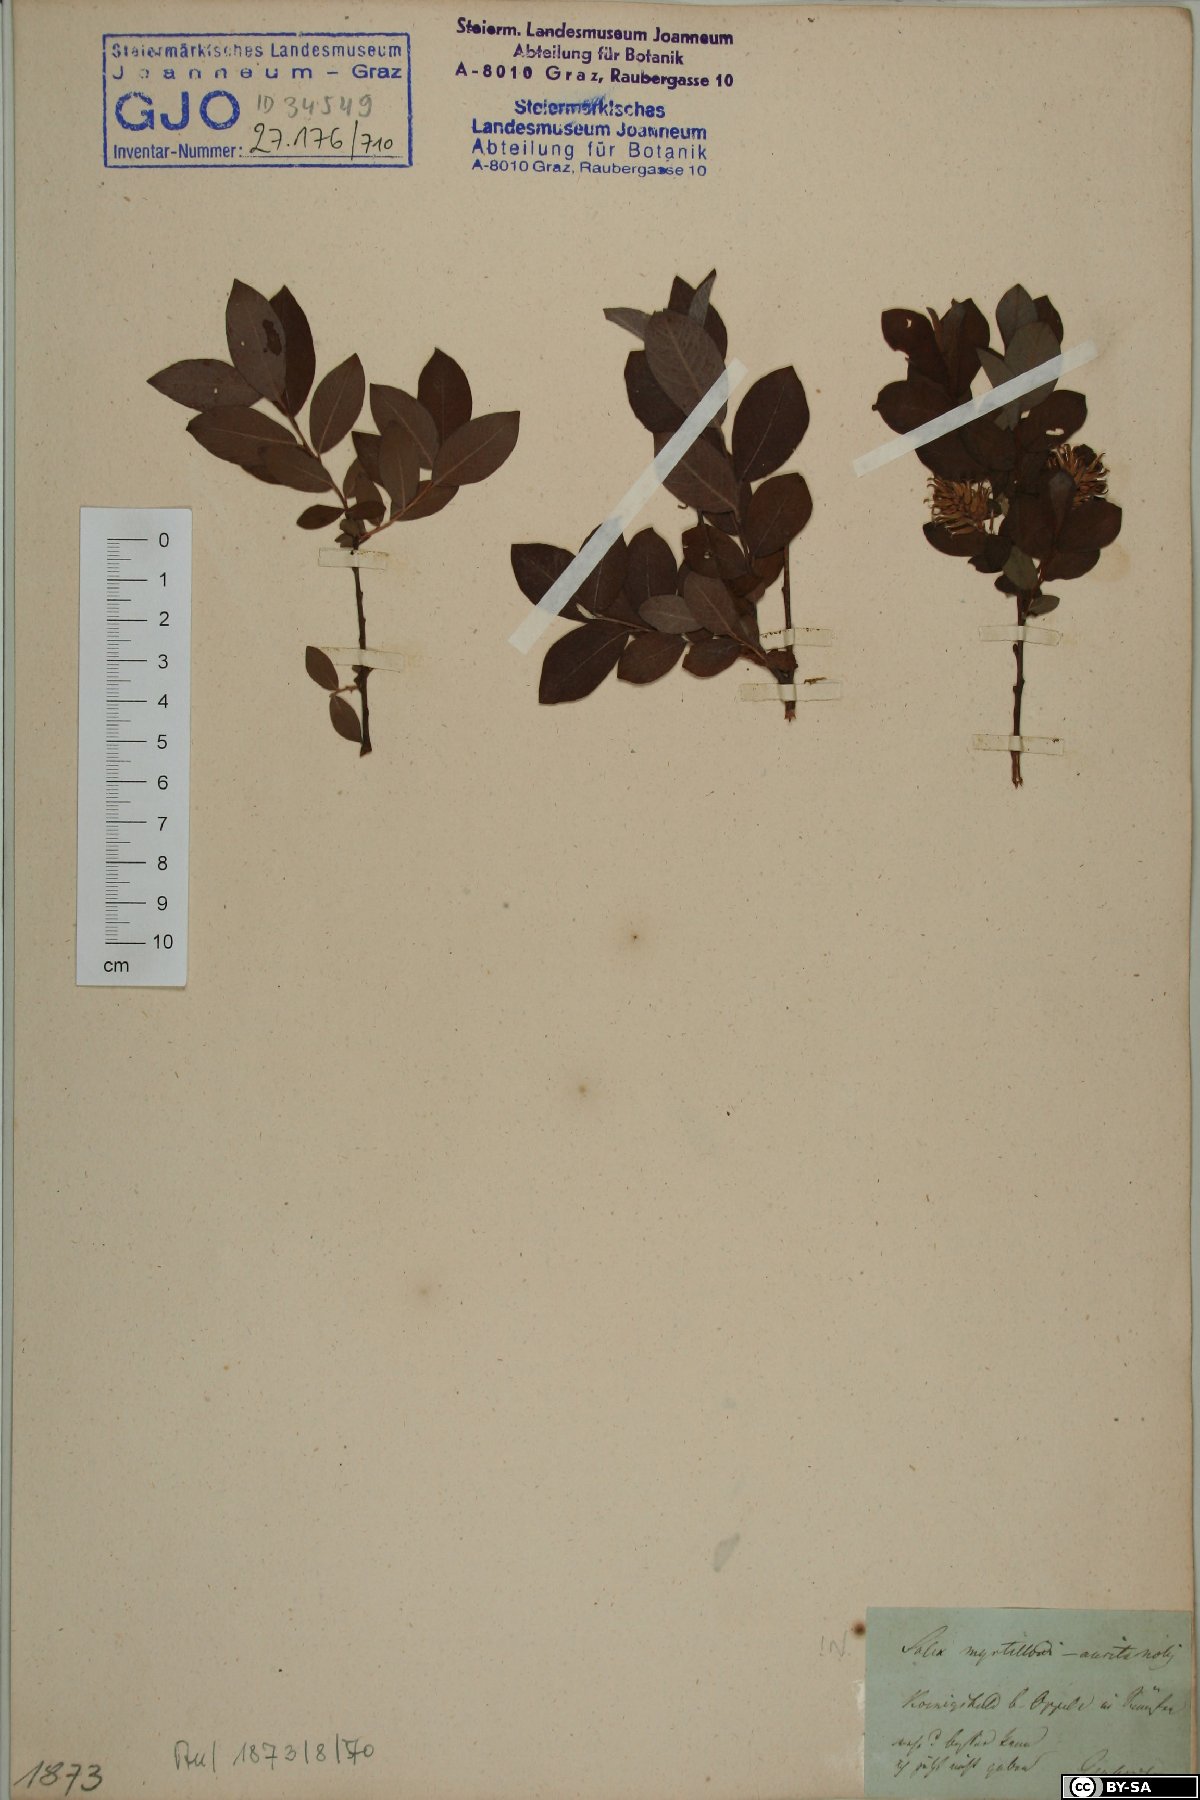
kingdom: Plantae
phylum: Tracheophyta
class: Magnoliopsida
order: Malpighiales
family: Salicaceae
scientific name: Salicaceae
